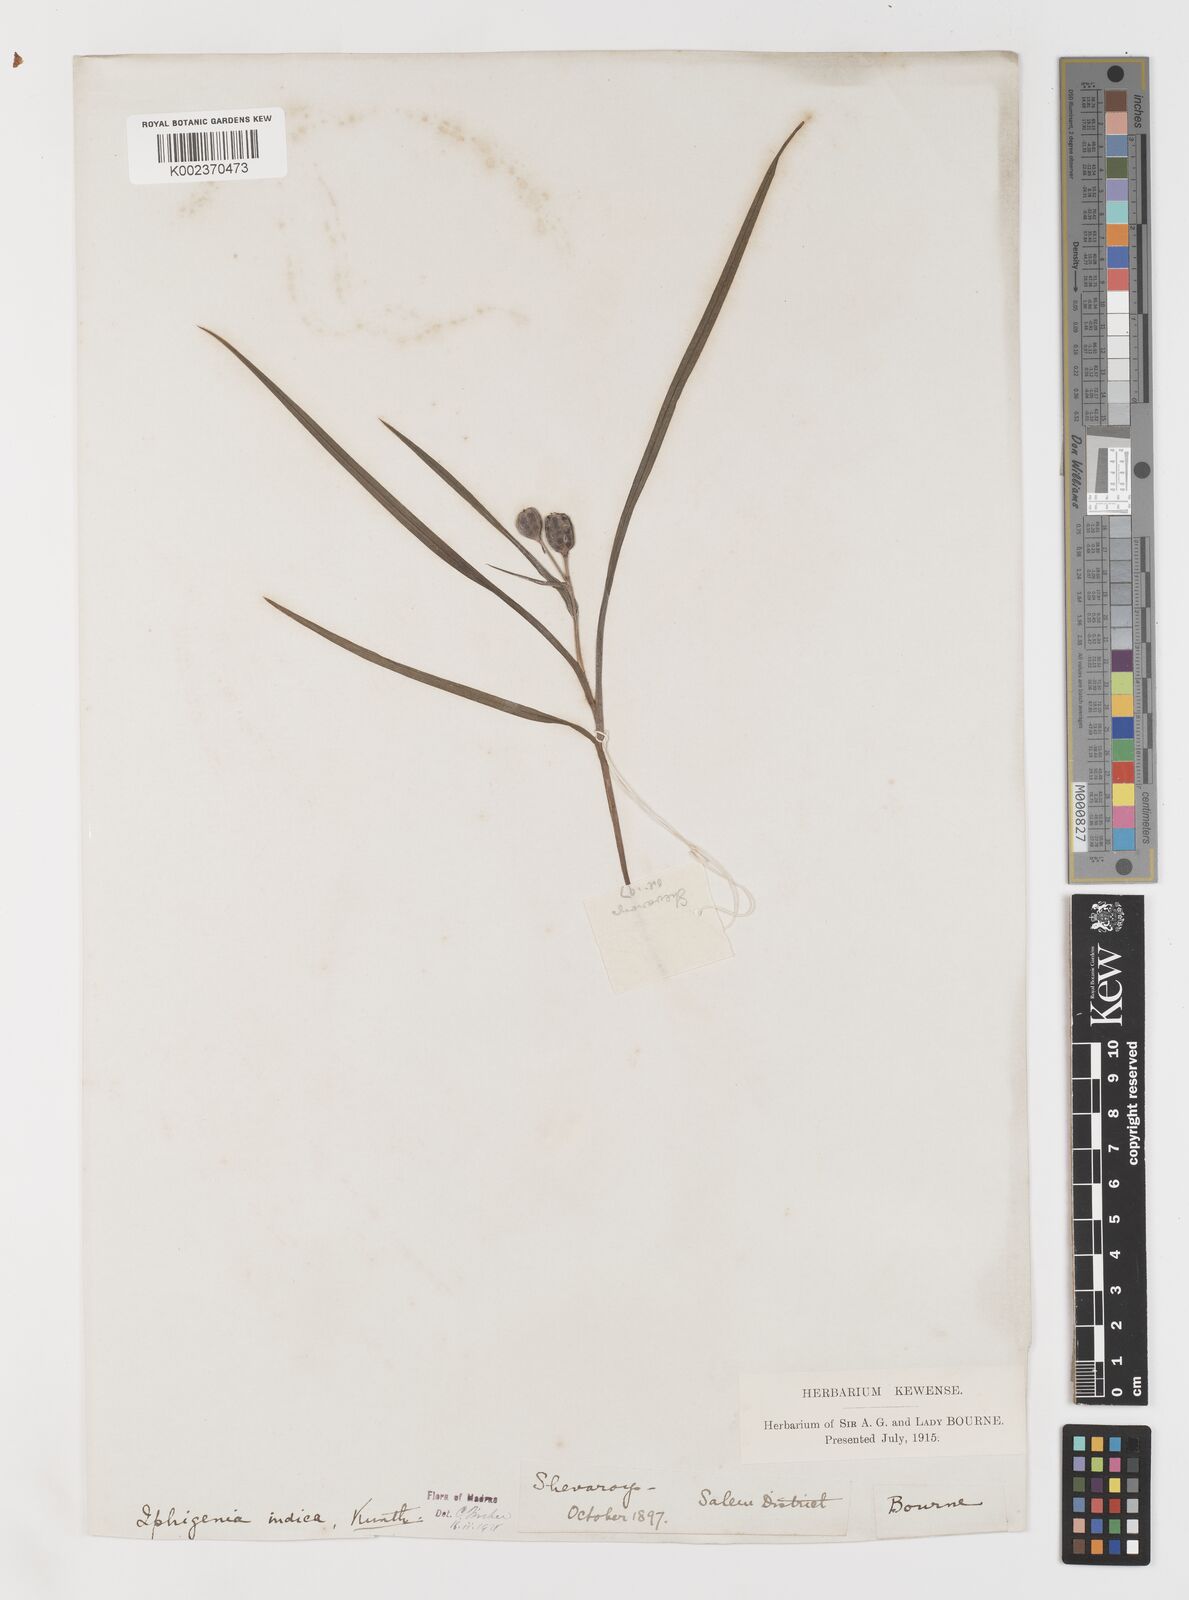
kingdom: Plantae
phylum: Tracheophyta
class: Liliopsida
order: Liliales
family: Colchicaceae
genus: Iphigenia
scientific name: Iphigenia indica
